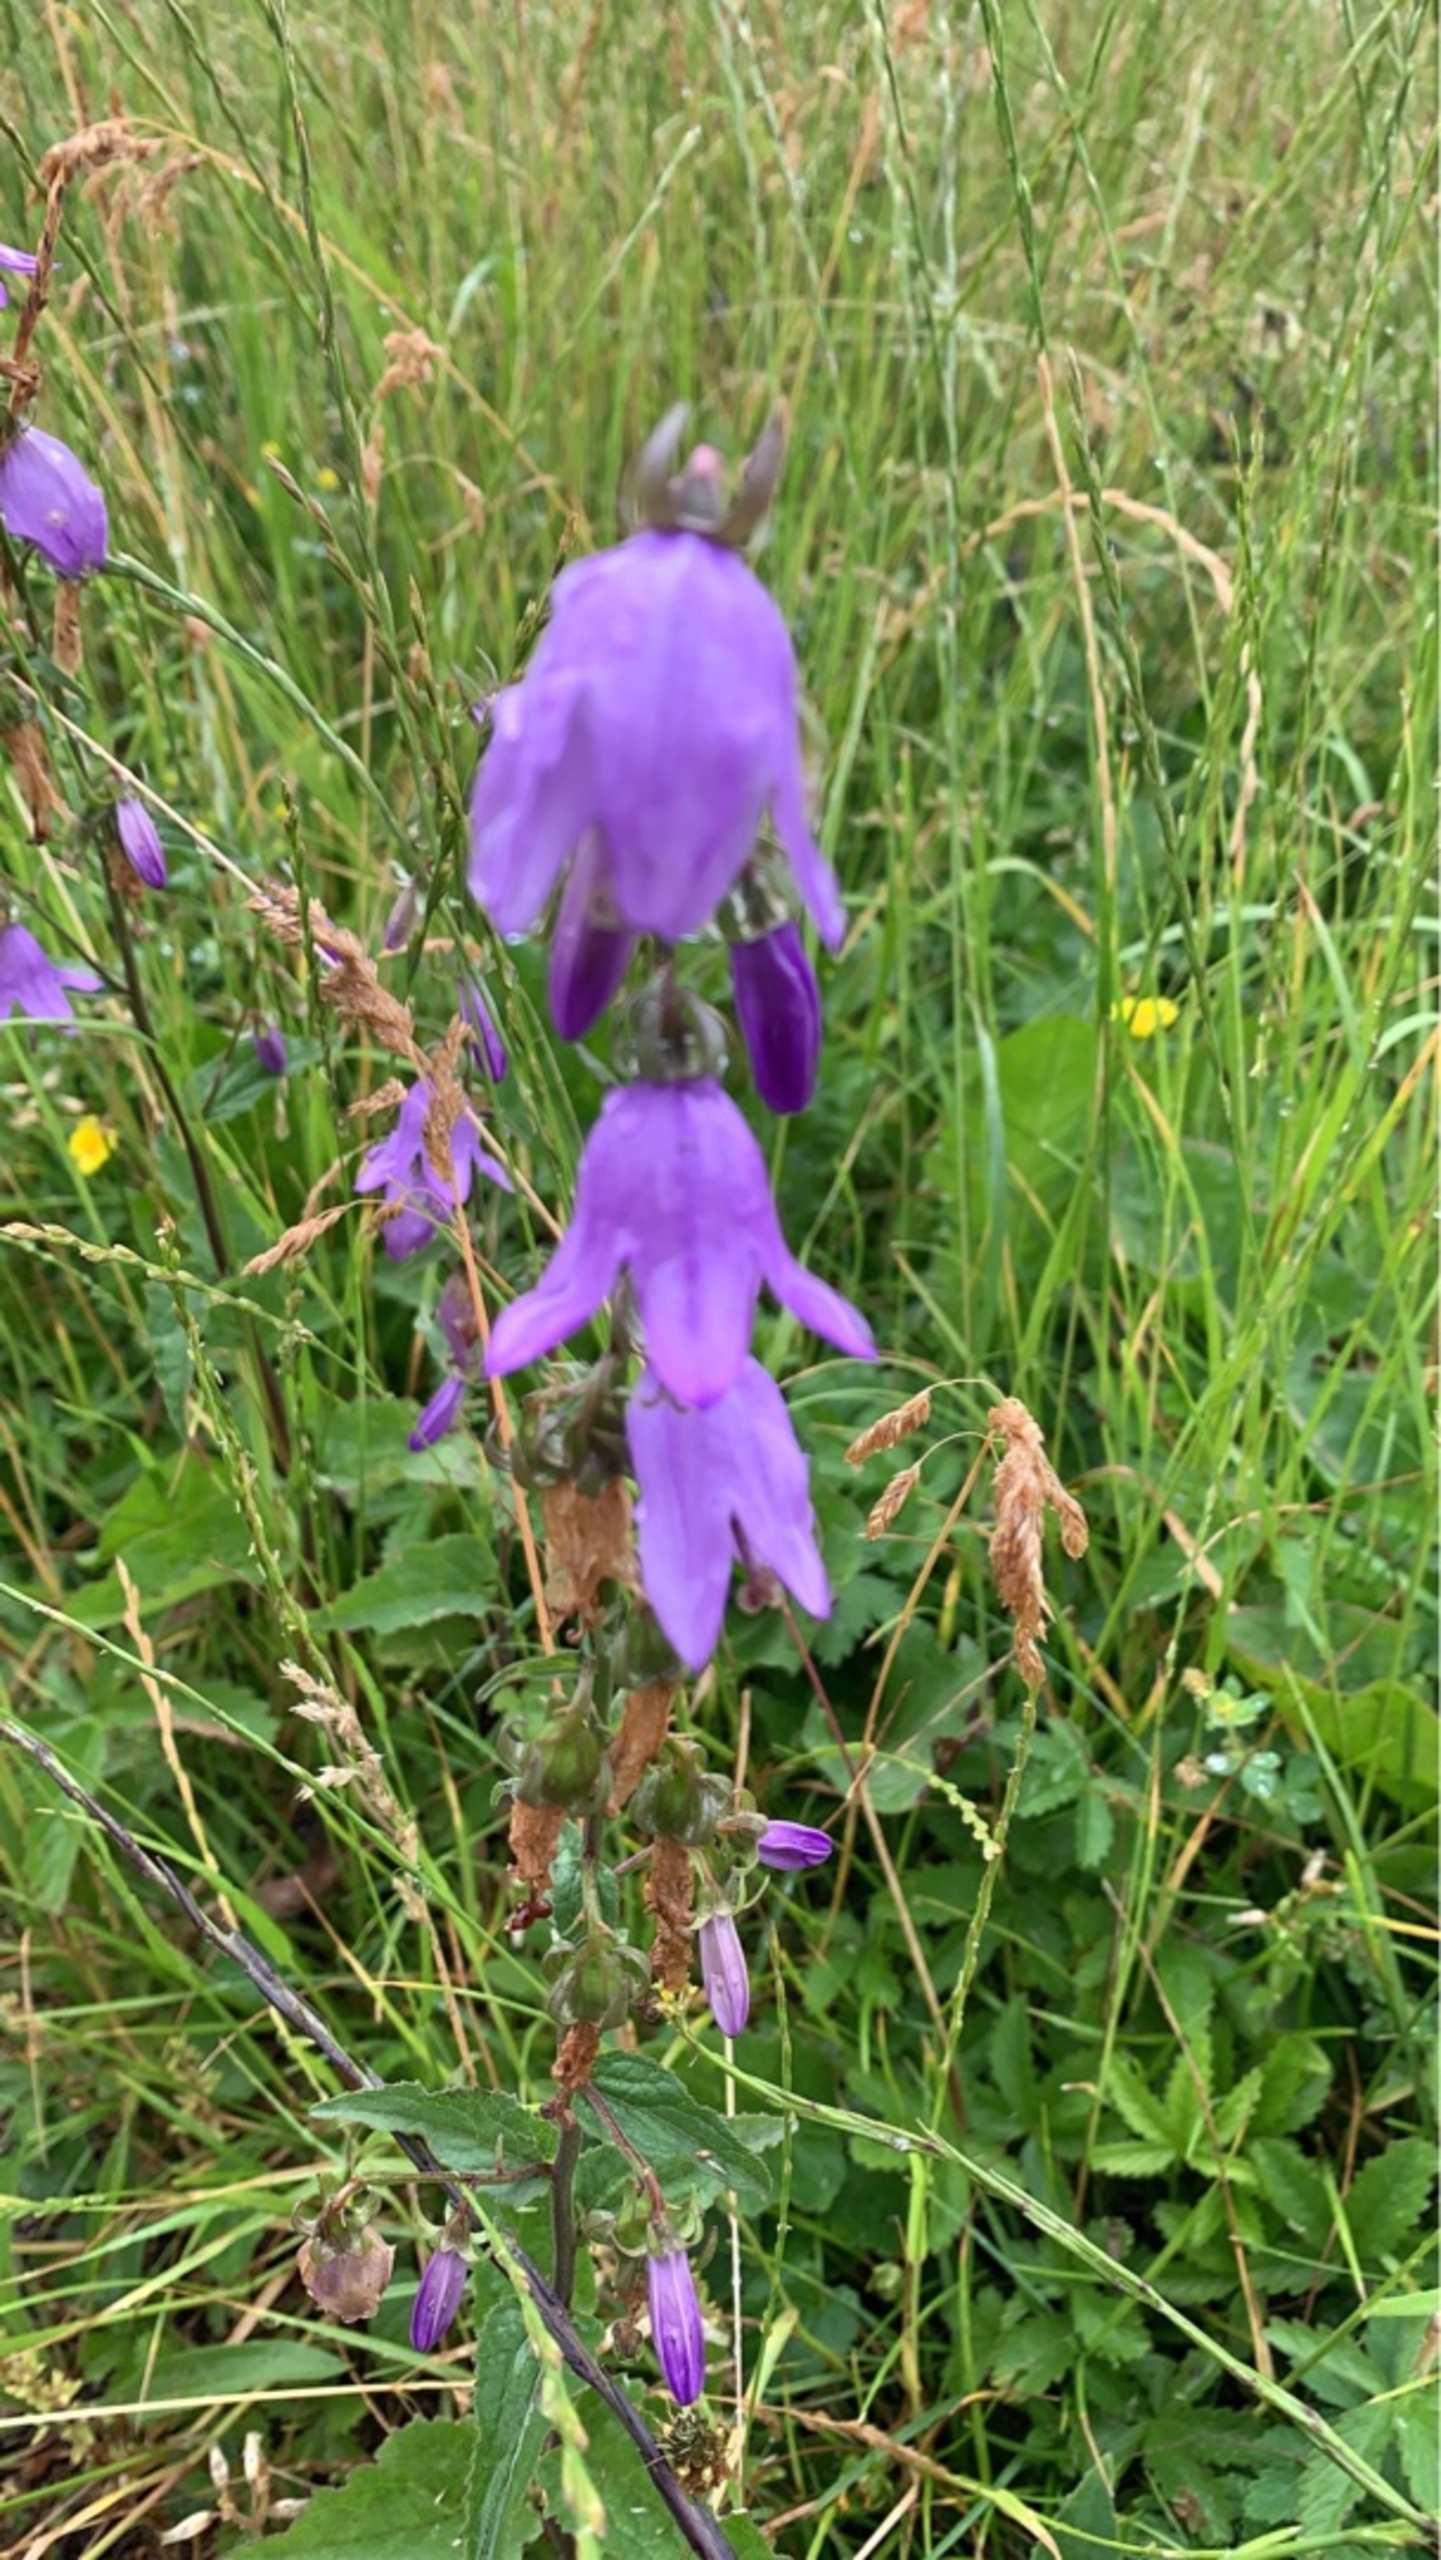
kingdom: Plantae
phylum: Tracheophyta
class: Magnoliopsida
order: Asterales
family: Campanulaceae
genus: Campanula
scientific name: Campanula rapunculoides
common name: Ensidig klokke
